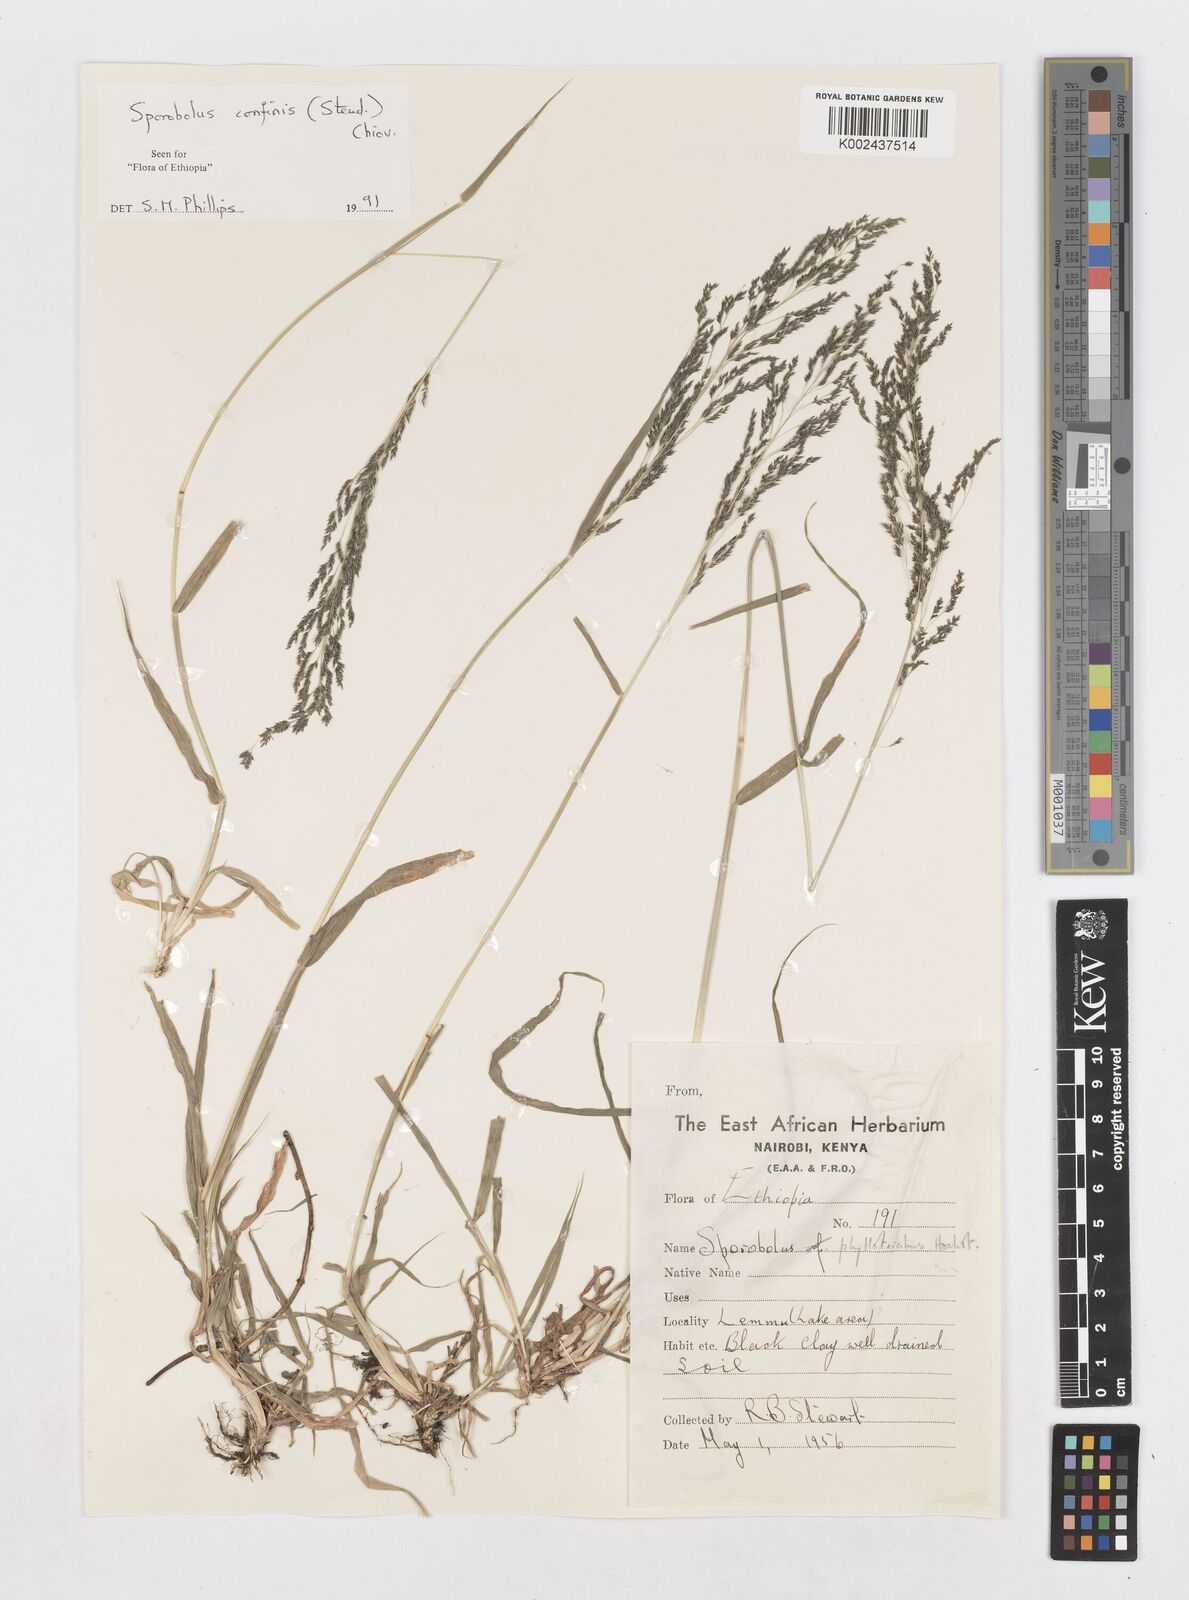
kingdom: Plantae
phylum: Tracheophyta
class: Liliopsida
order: Poales
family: Poaceae
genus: Sporobolus
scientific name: Sporobolus confinis
